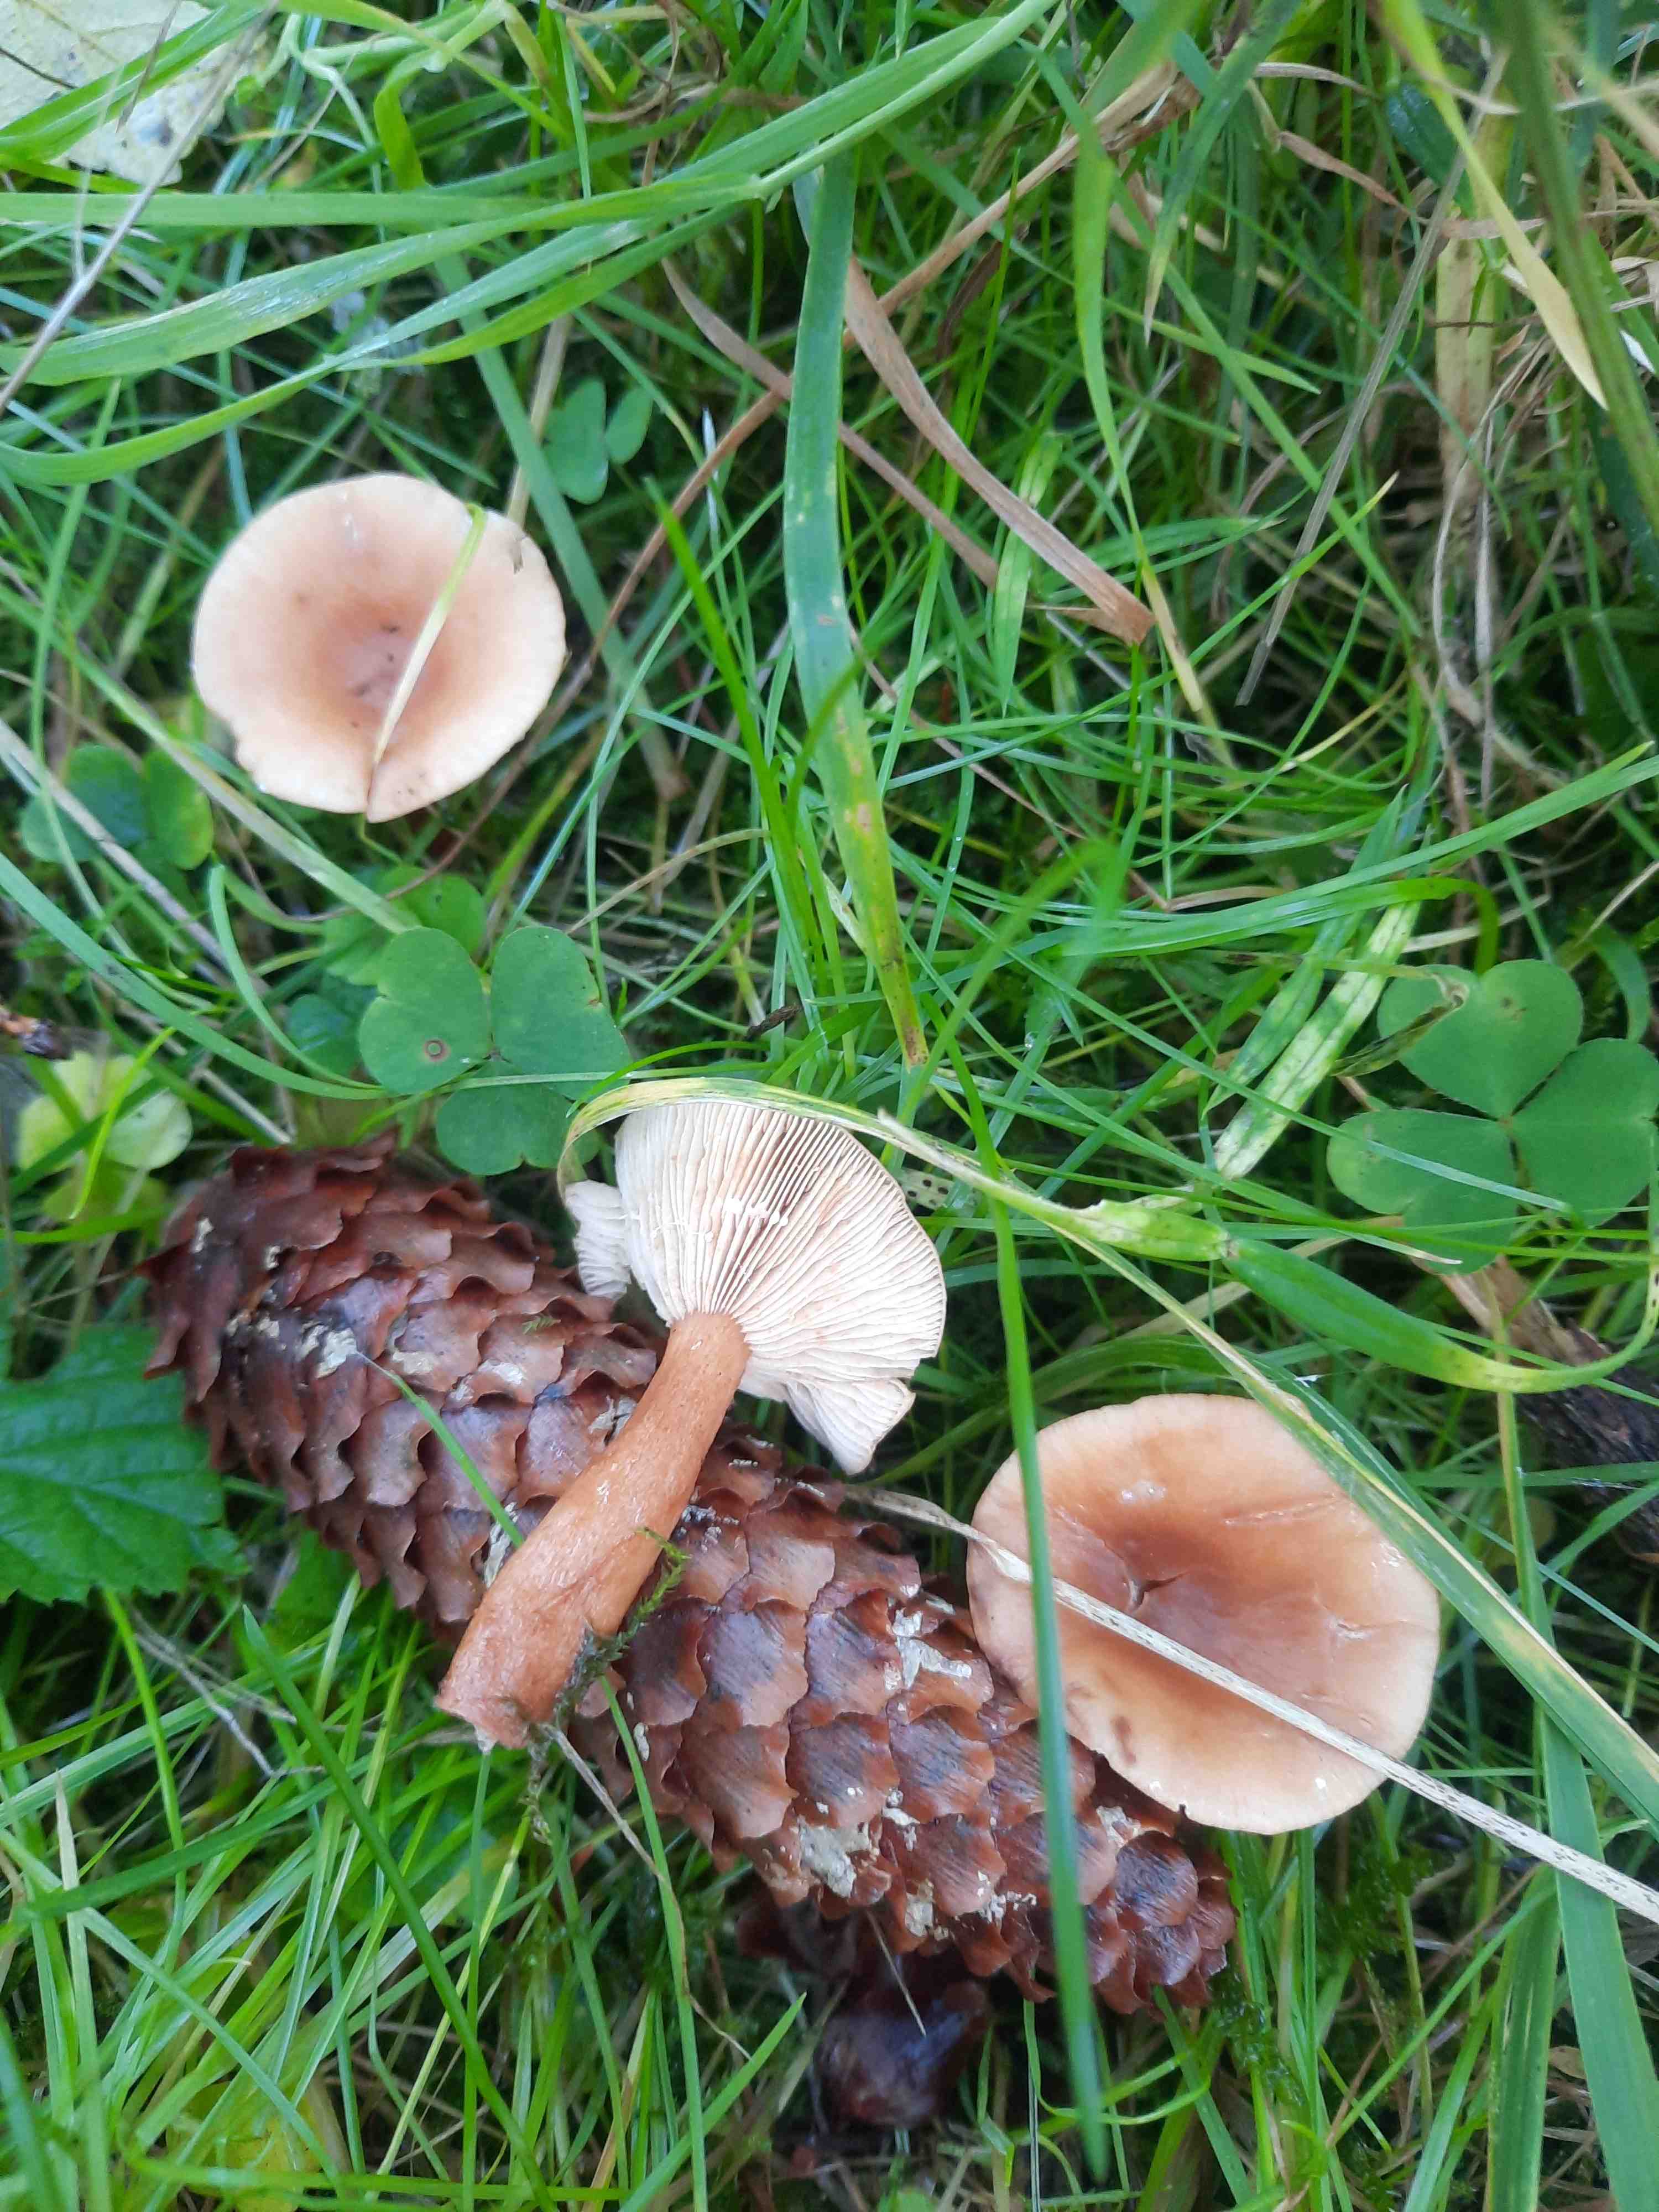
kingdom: Fungi
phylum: Basidiomycota
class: Agaricomycetes
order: Russulales
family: Russulaceae
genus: Lactarius
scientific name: Lactarius tabidus
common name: rynket mælkehat
